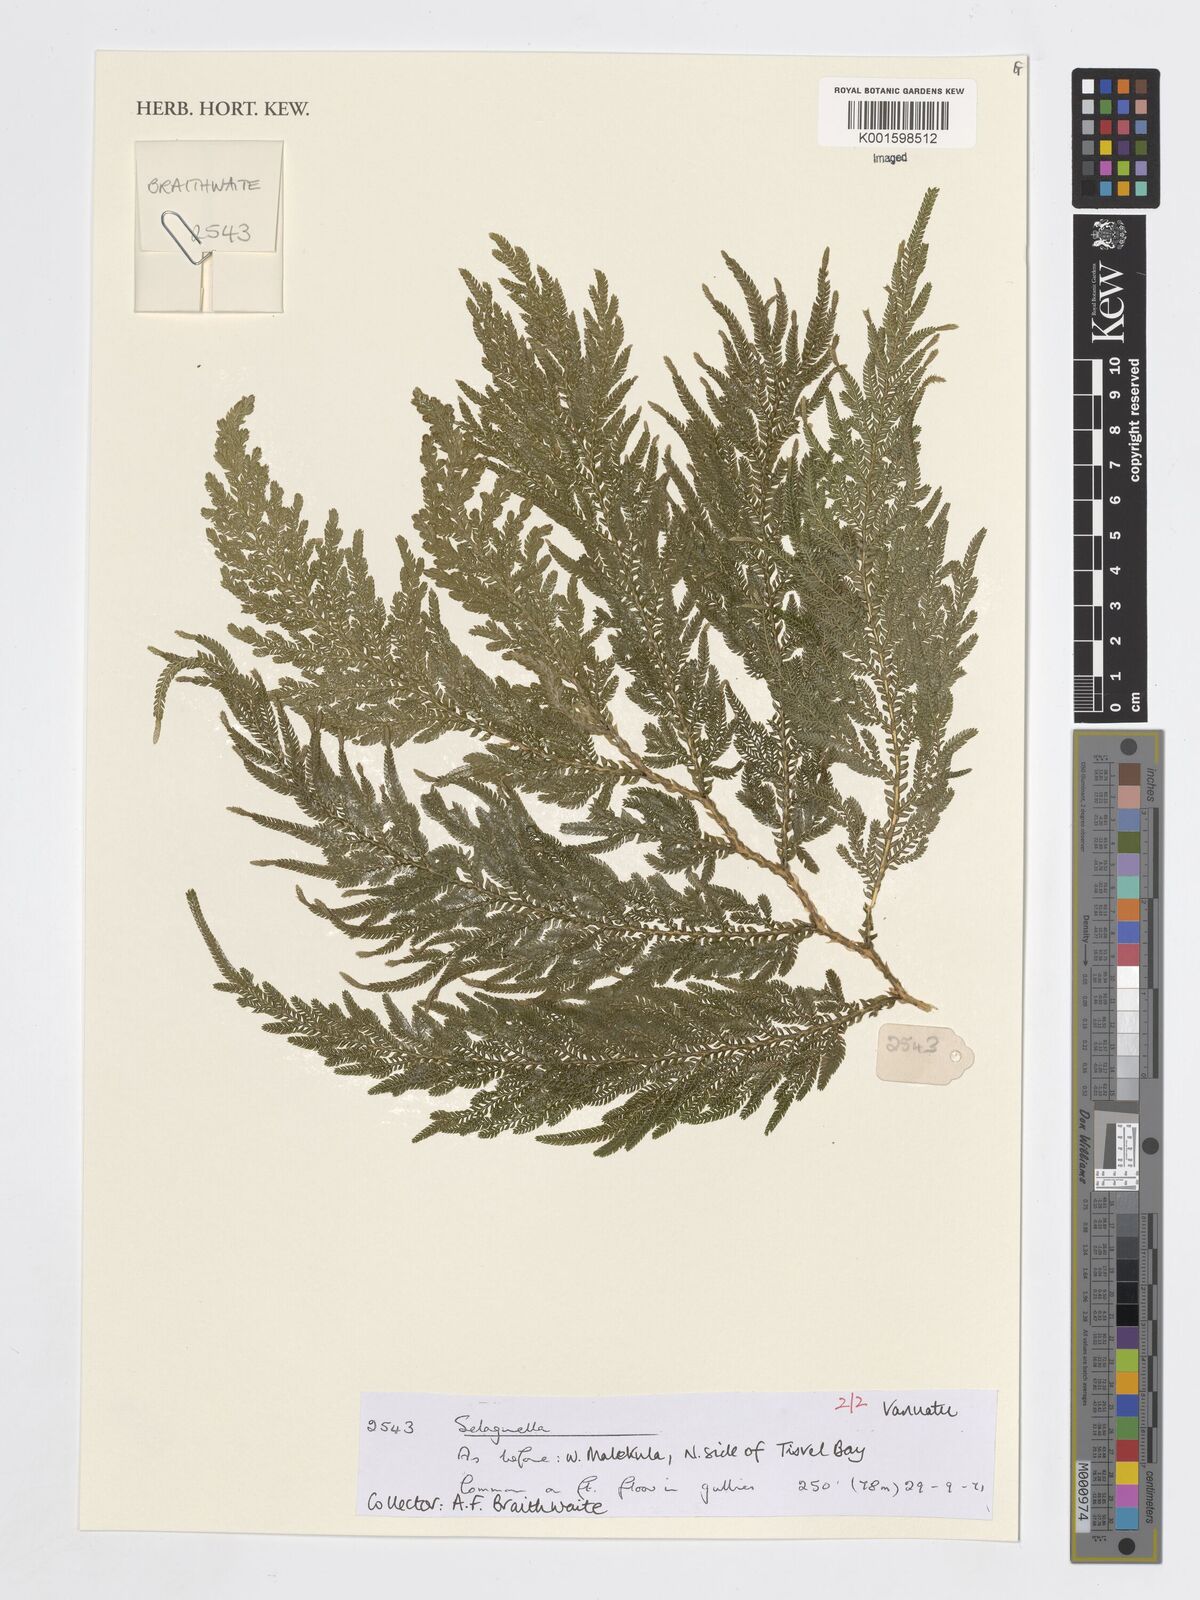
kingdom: Plantae
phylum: Tracheophyta
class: Lycopodiopsida
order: Selaginellales
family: Selaginellaceae
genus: Selaginella
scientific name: Selaginella
